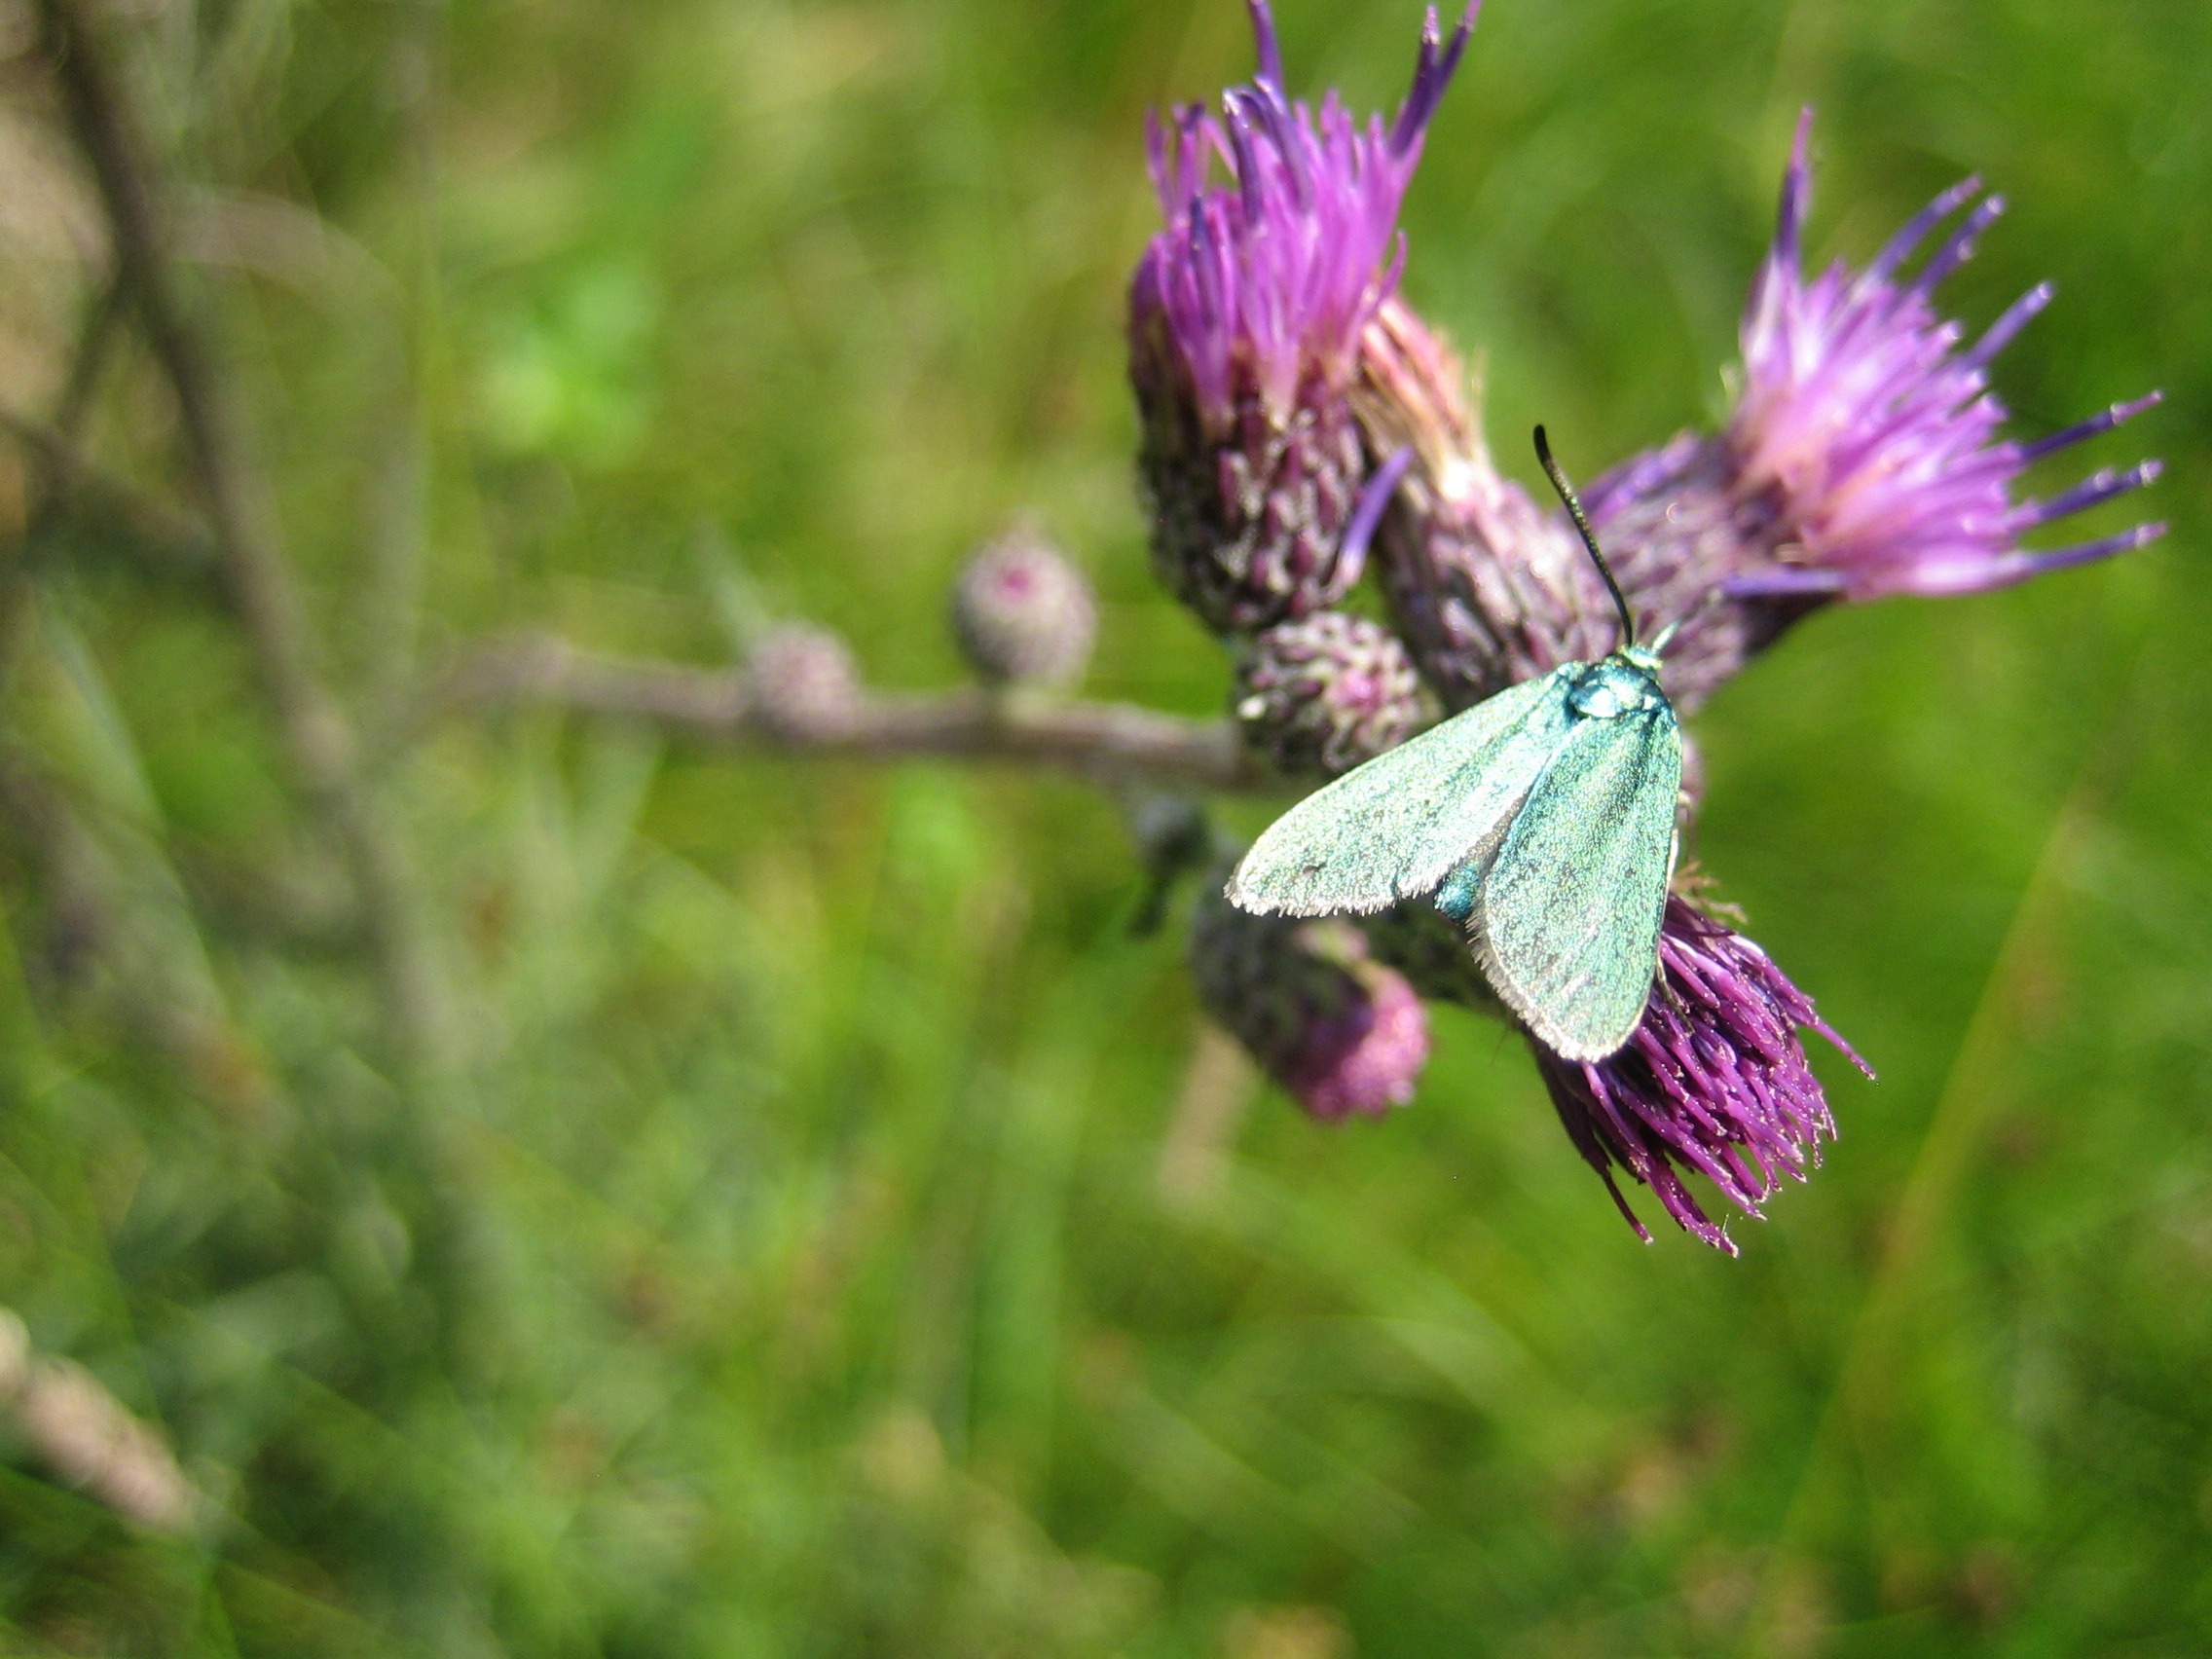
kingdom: Animalia
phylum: Arthropoda
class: Insecta
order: Lepidoptera
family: Zygaenidae
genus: Adscita
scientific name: Adscita statices
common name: Metalvinge
